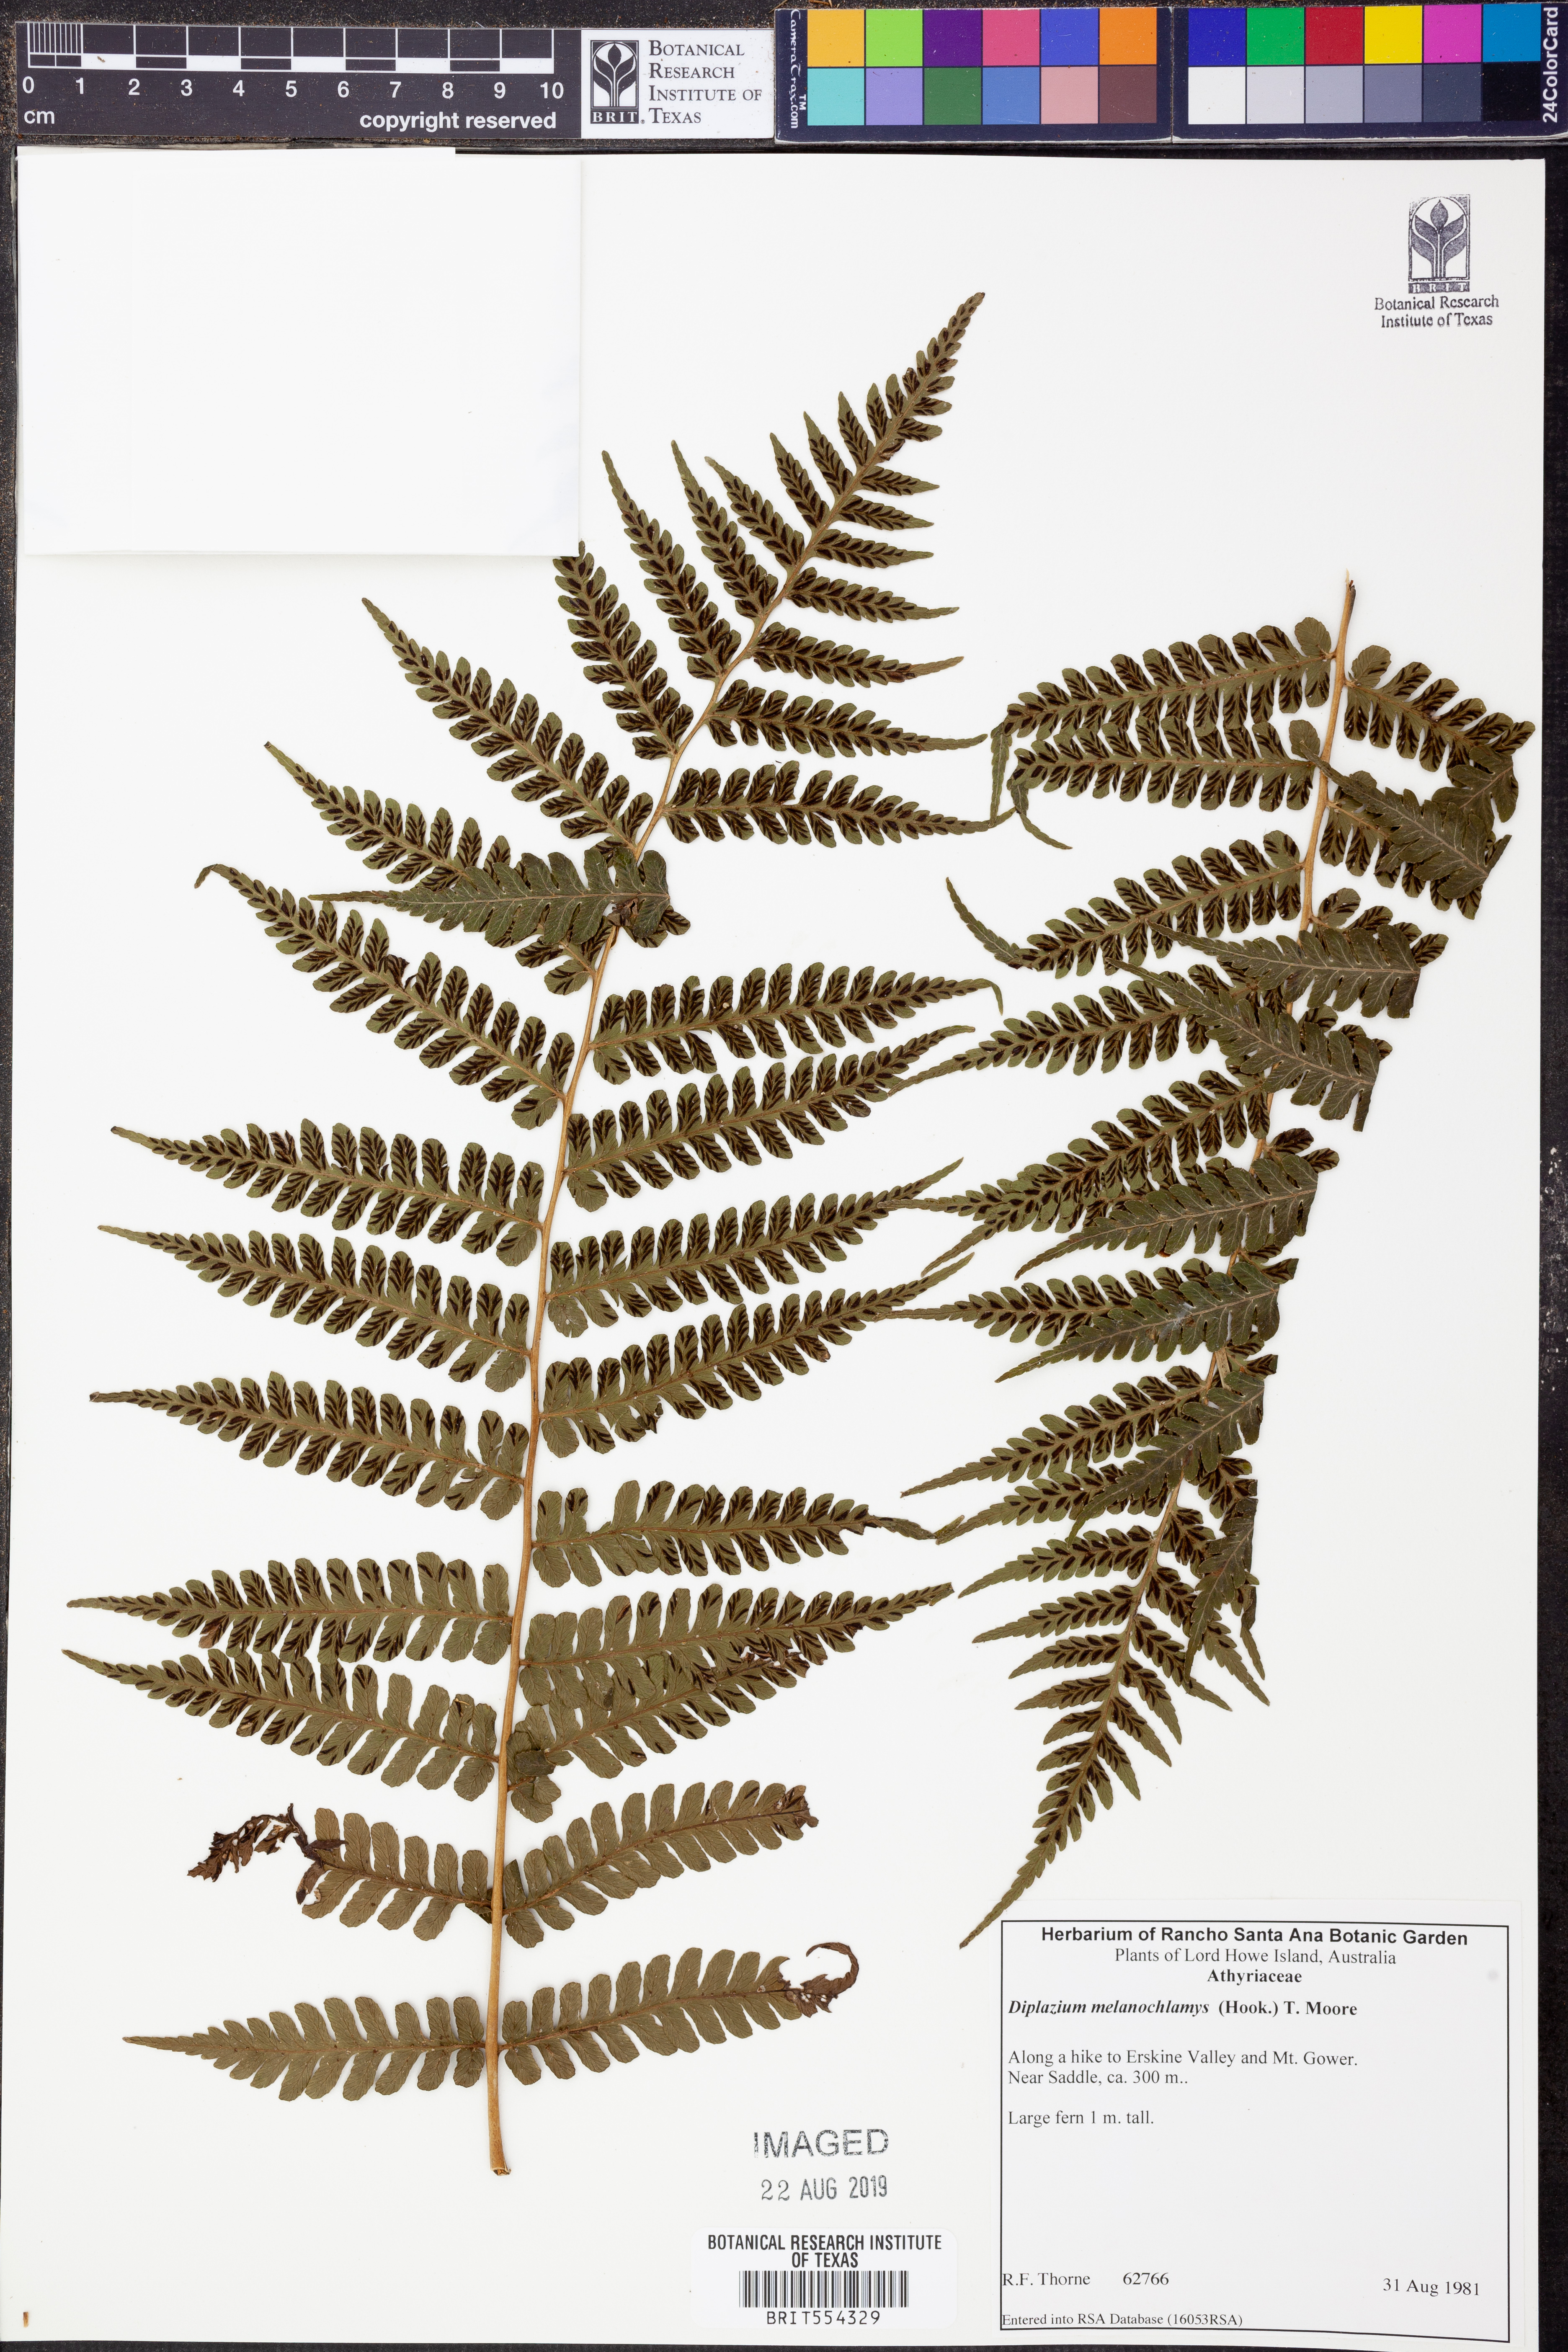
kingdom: Plantae
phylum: Tracheophyta
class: Polypodiopsida
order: Polypodiales
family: Athyriaceae
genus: Diplazium
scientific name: Diplazium melanochlamys
